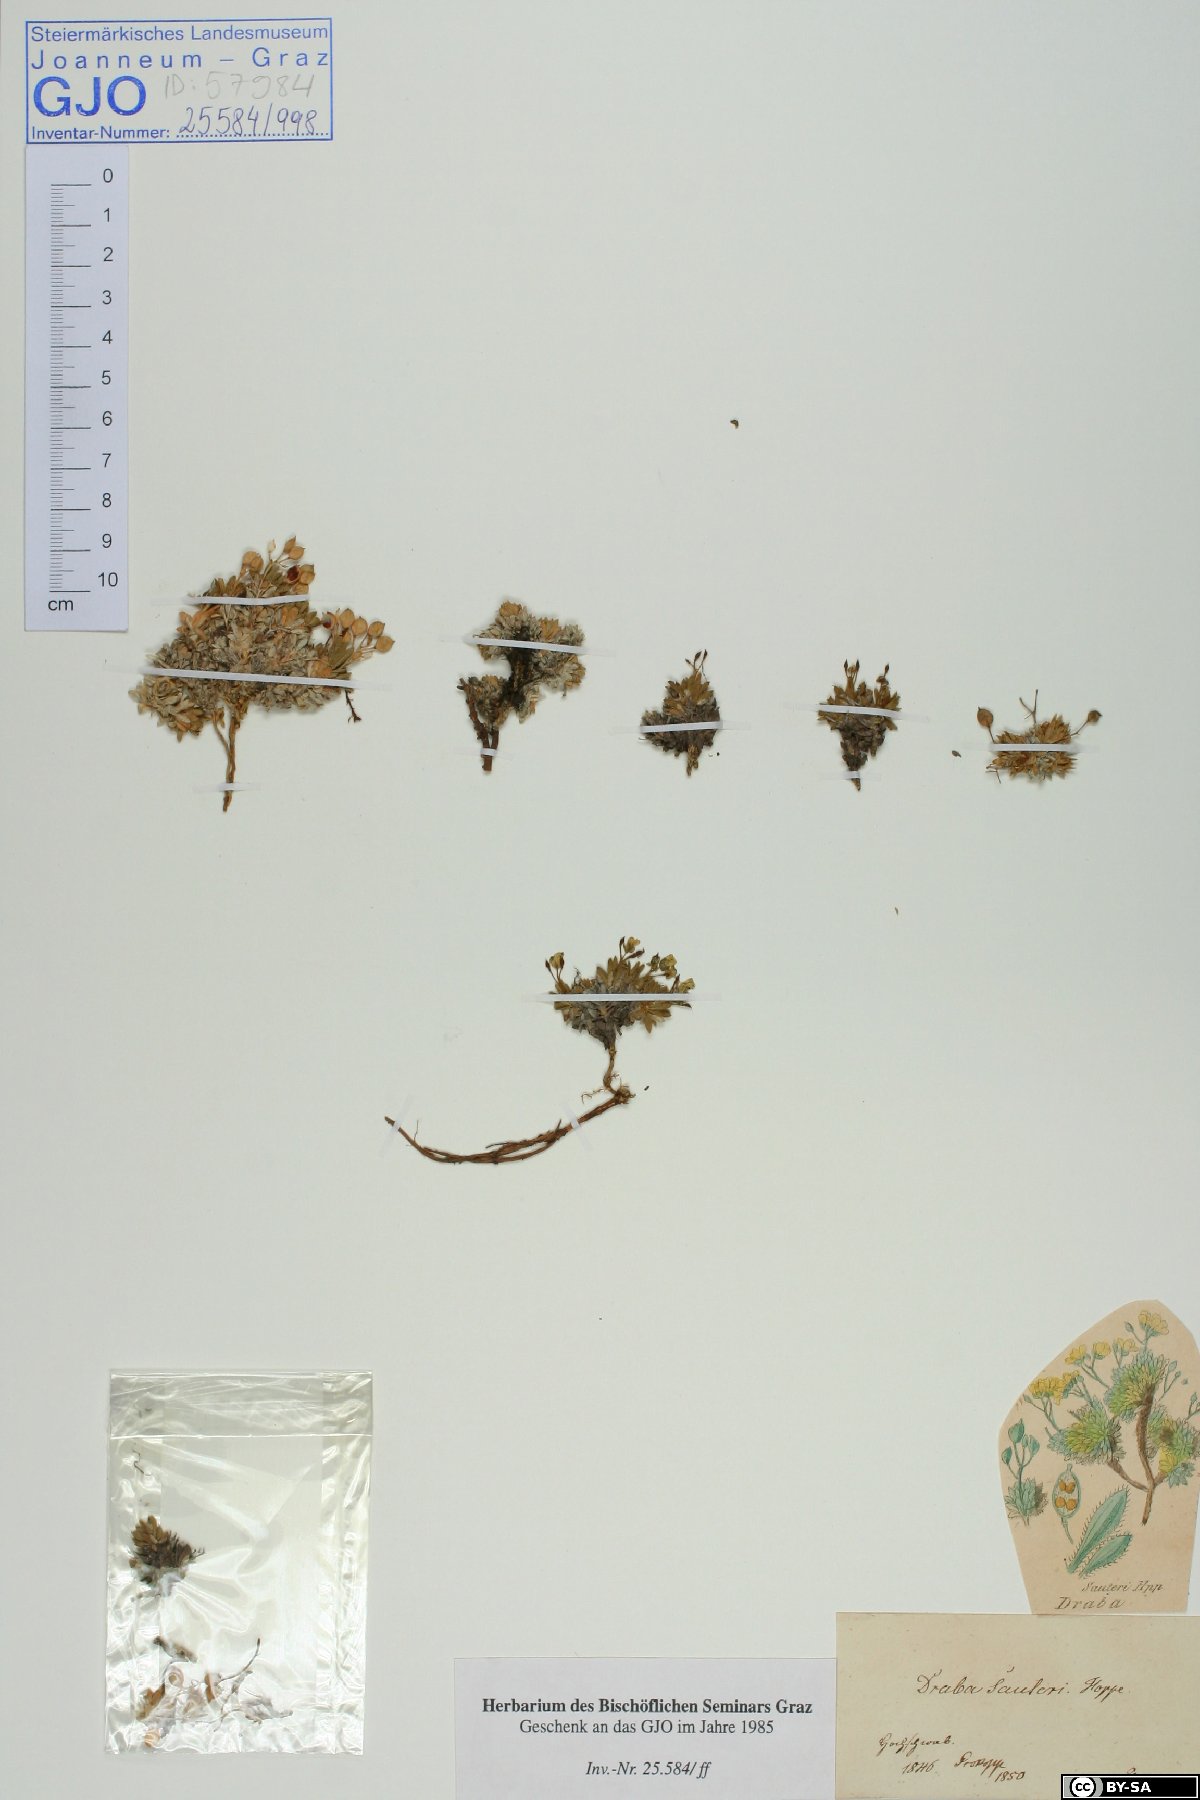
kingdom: Plantae
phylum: Tracheophyta
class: Magnoliopsida
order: Brassicales
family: Brassicaceae
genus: Draba
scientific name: Draba sauteri
